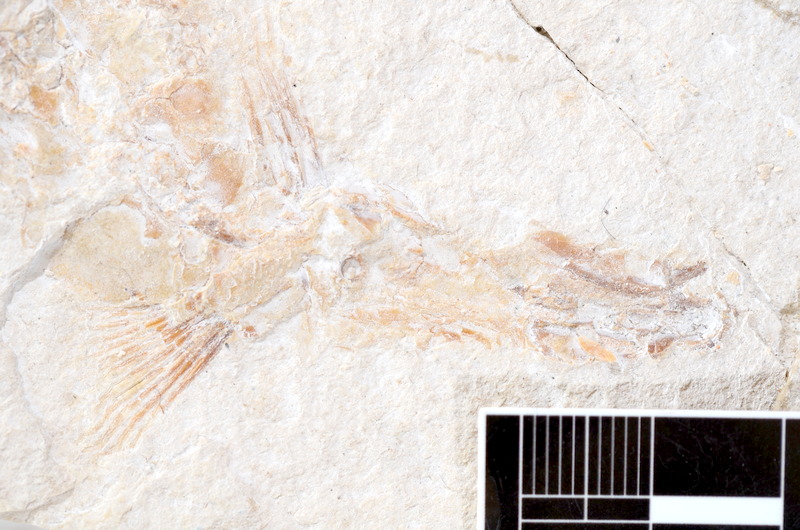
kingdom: Animalia
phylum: Chordata
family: Ascalaboidae
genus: Tharsis
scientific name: Tharsis dubius
